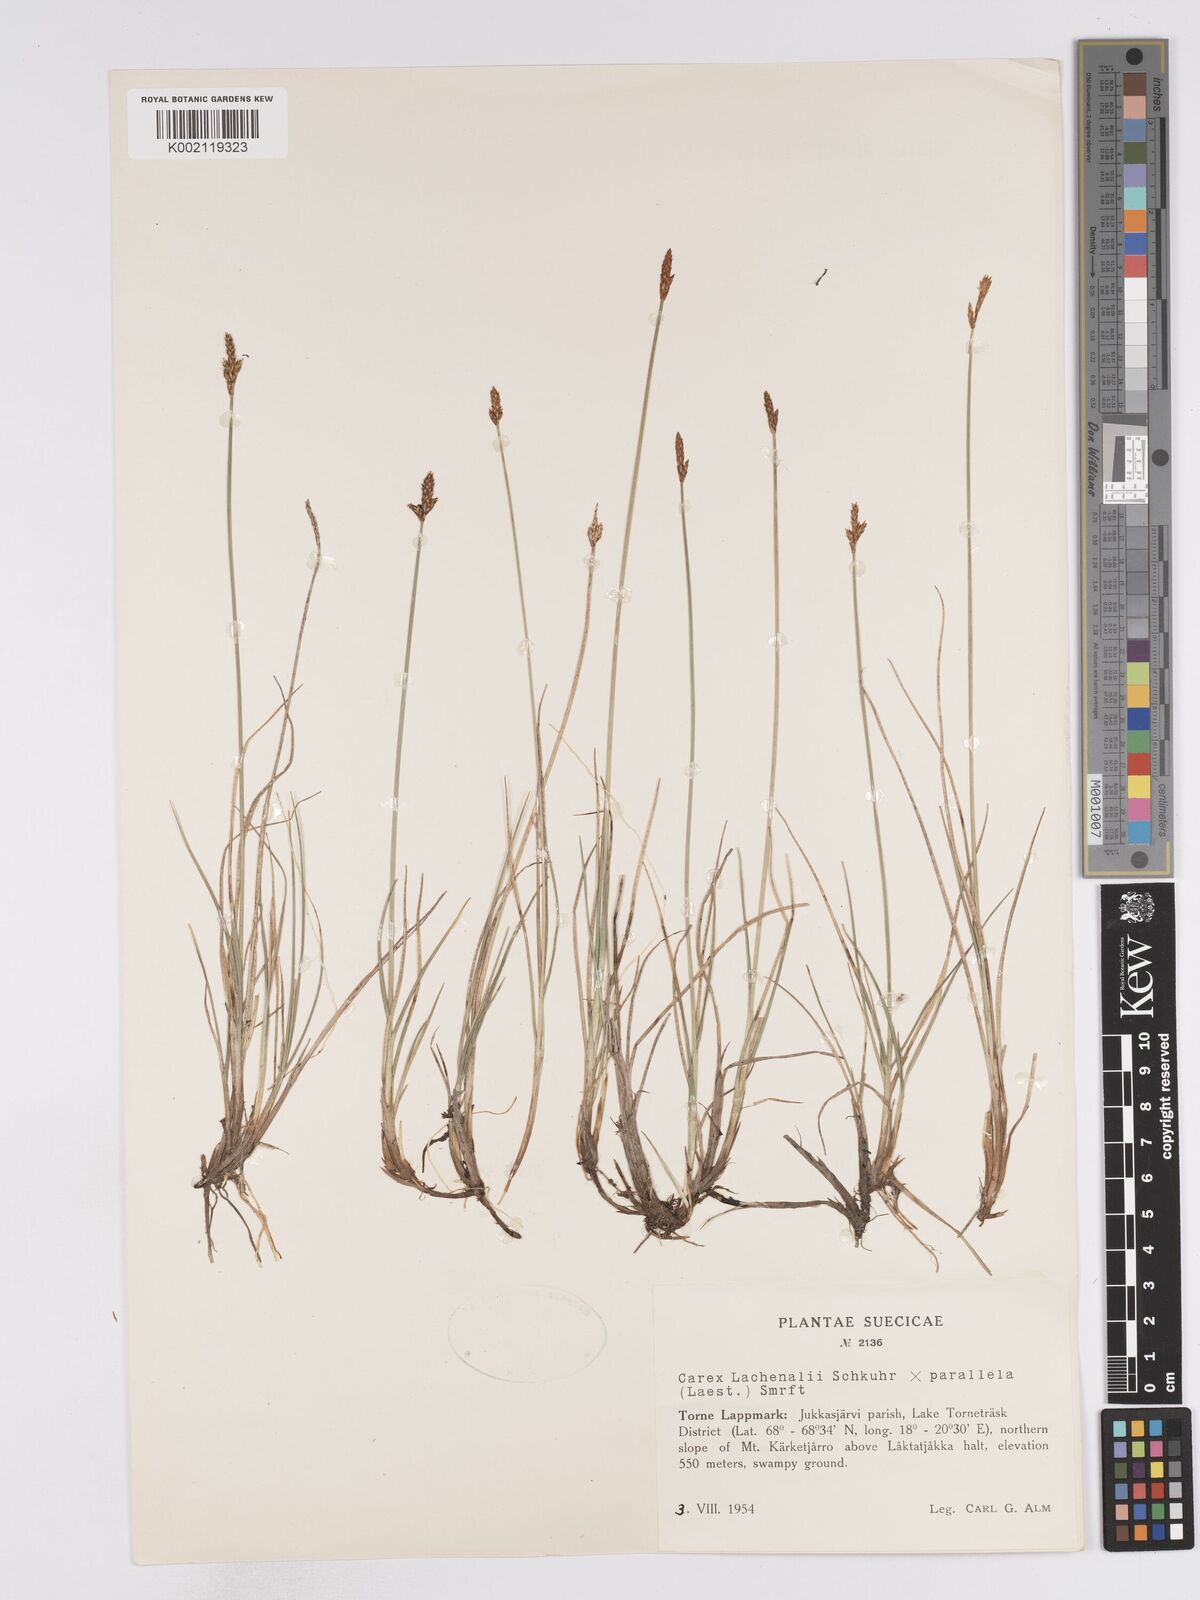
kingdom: Plantae
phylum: Tracheophyta
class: Liliopsida
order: Poales
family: Cyperaceae
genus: Carex
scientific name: Carex lachenalii
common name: Hare's-foot sedge
